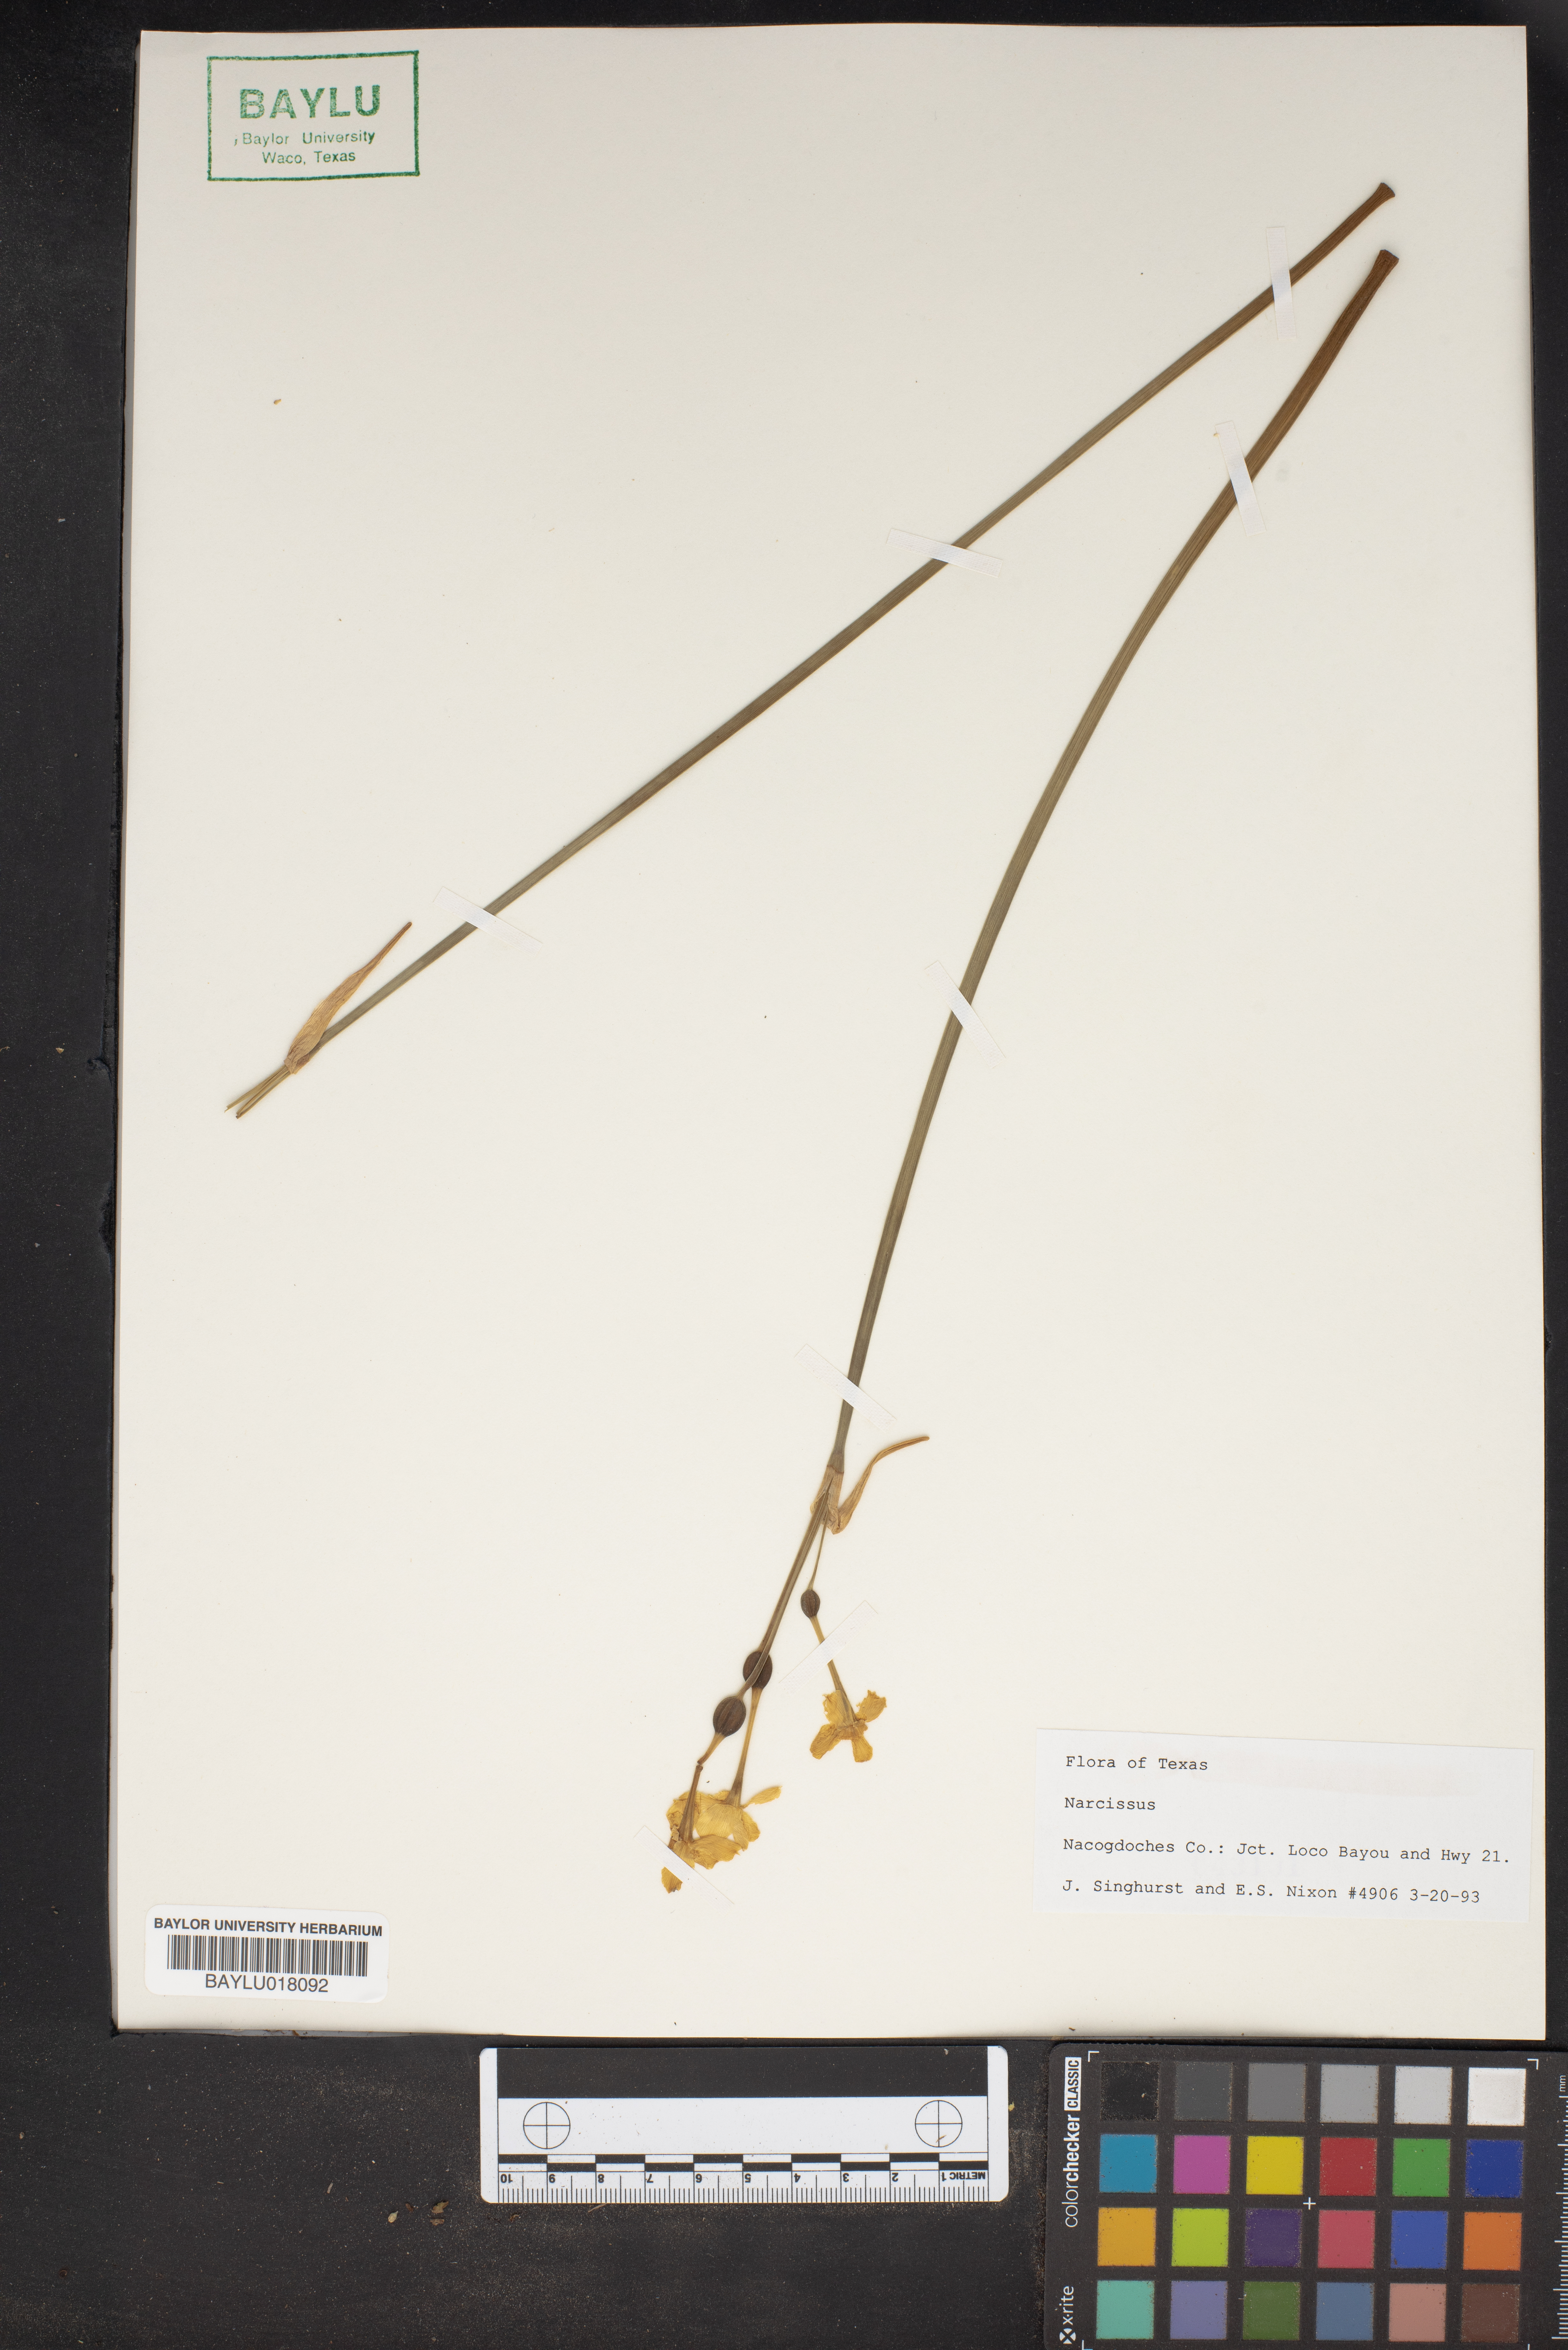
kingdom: Plantae
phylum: Tracheophyta
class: Liliopsida
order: Asparagales
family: Amaryllidaceae
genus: Narcissus
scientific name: Narcissus
